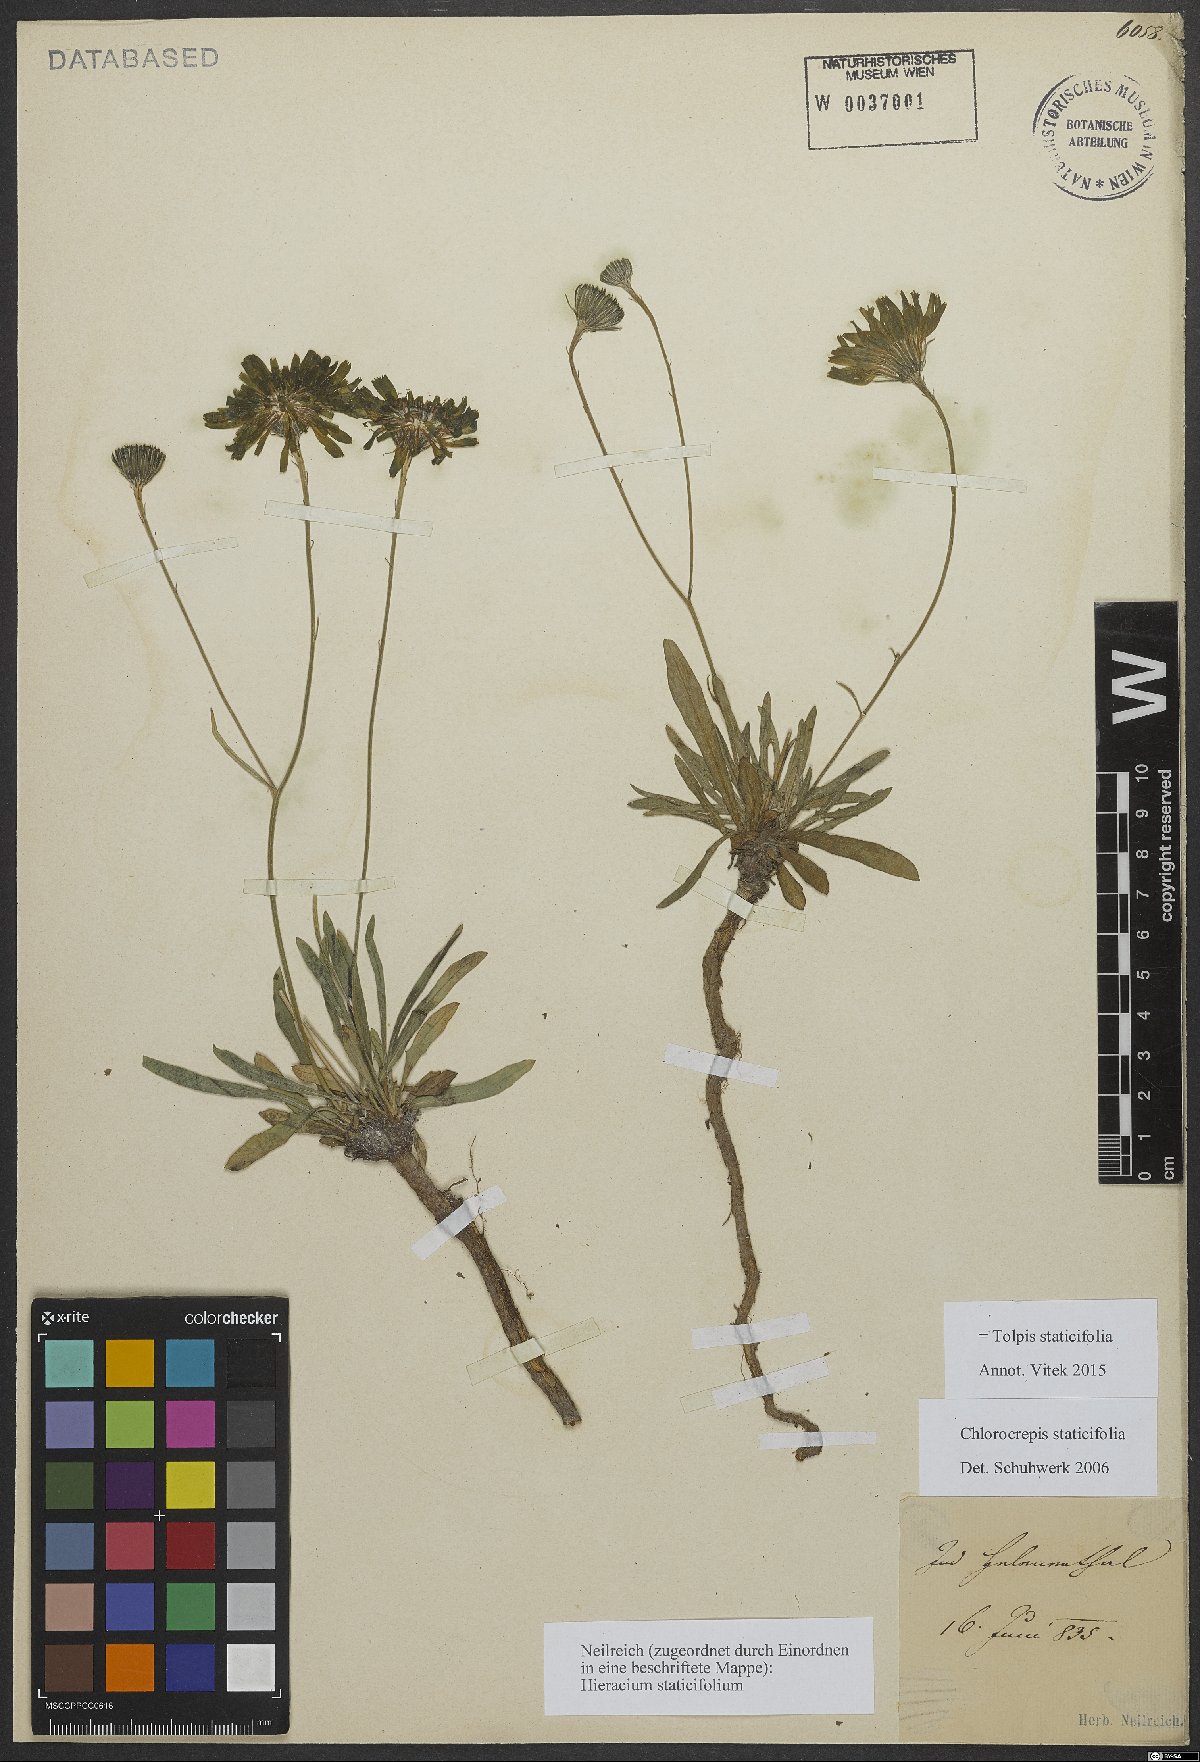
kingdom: Plantae
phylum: Tracheophyta
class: Magnoliopsida
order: Asterales
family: Asteraceae
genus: Tolpis
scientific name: Tolpis staticifolia
